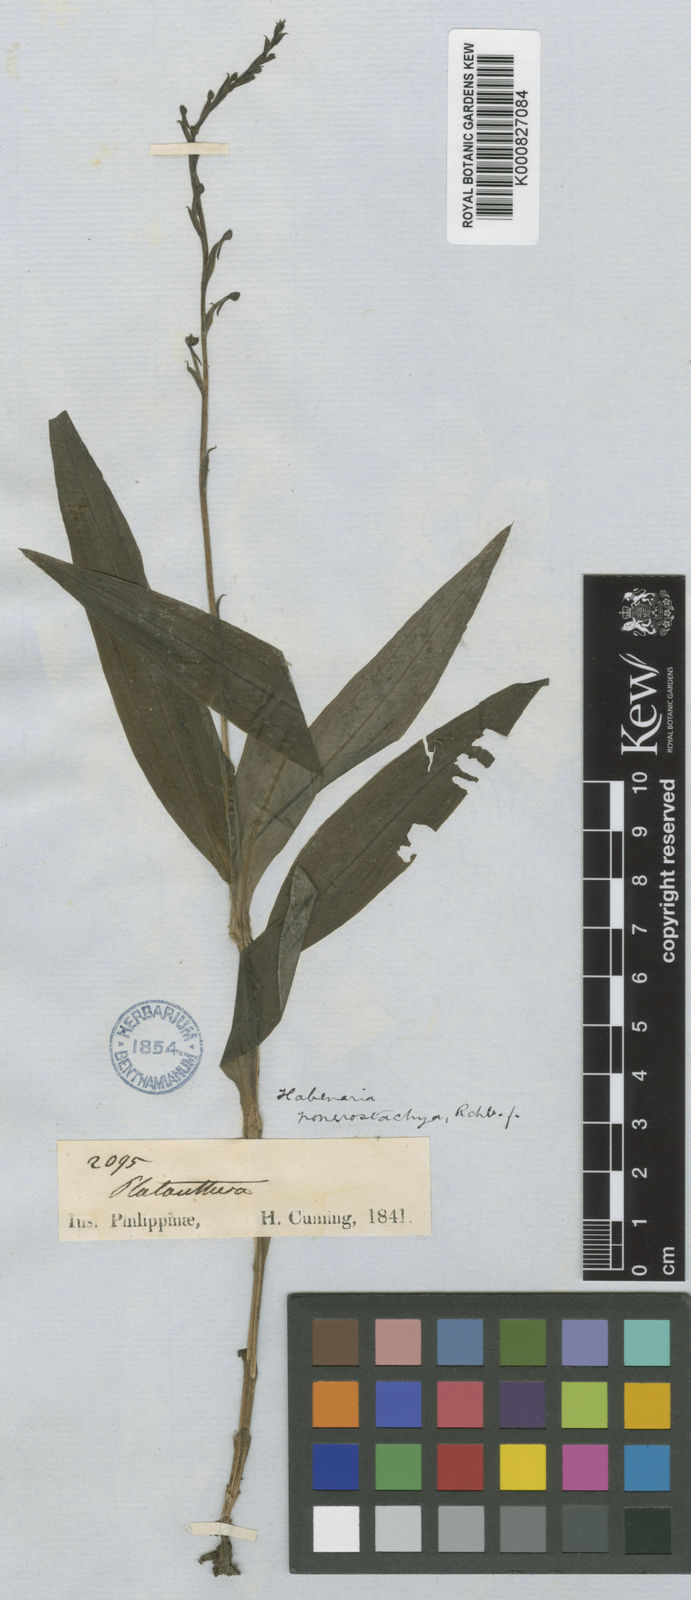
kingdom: Plantae
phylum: Tracheophyta
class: Liliopsida
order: Asparagales
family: Orchidaceae
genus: Peristylus
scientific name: Peristylus ponerostachys
